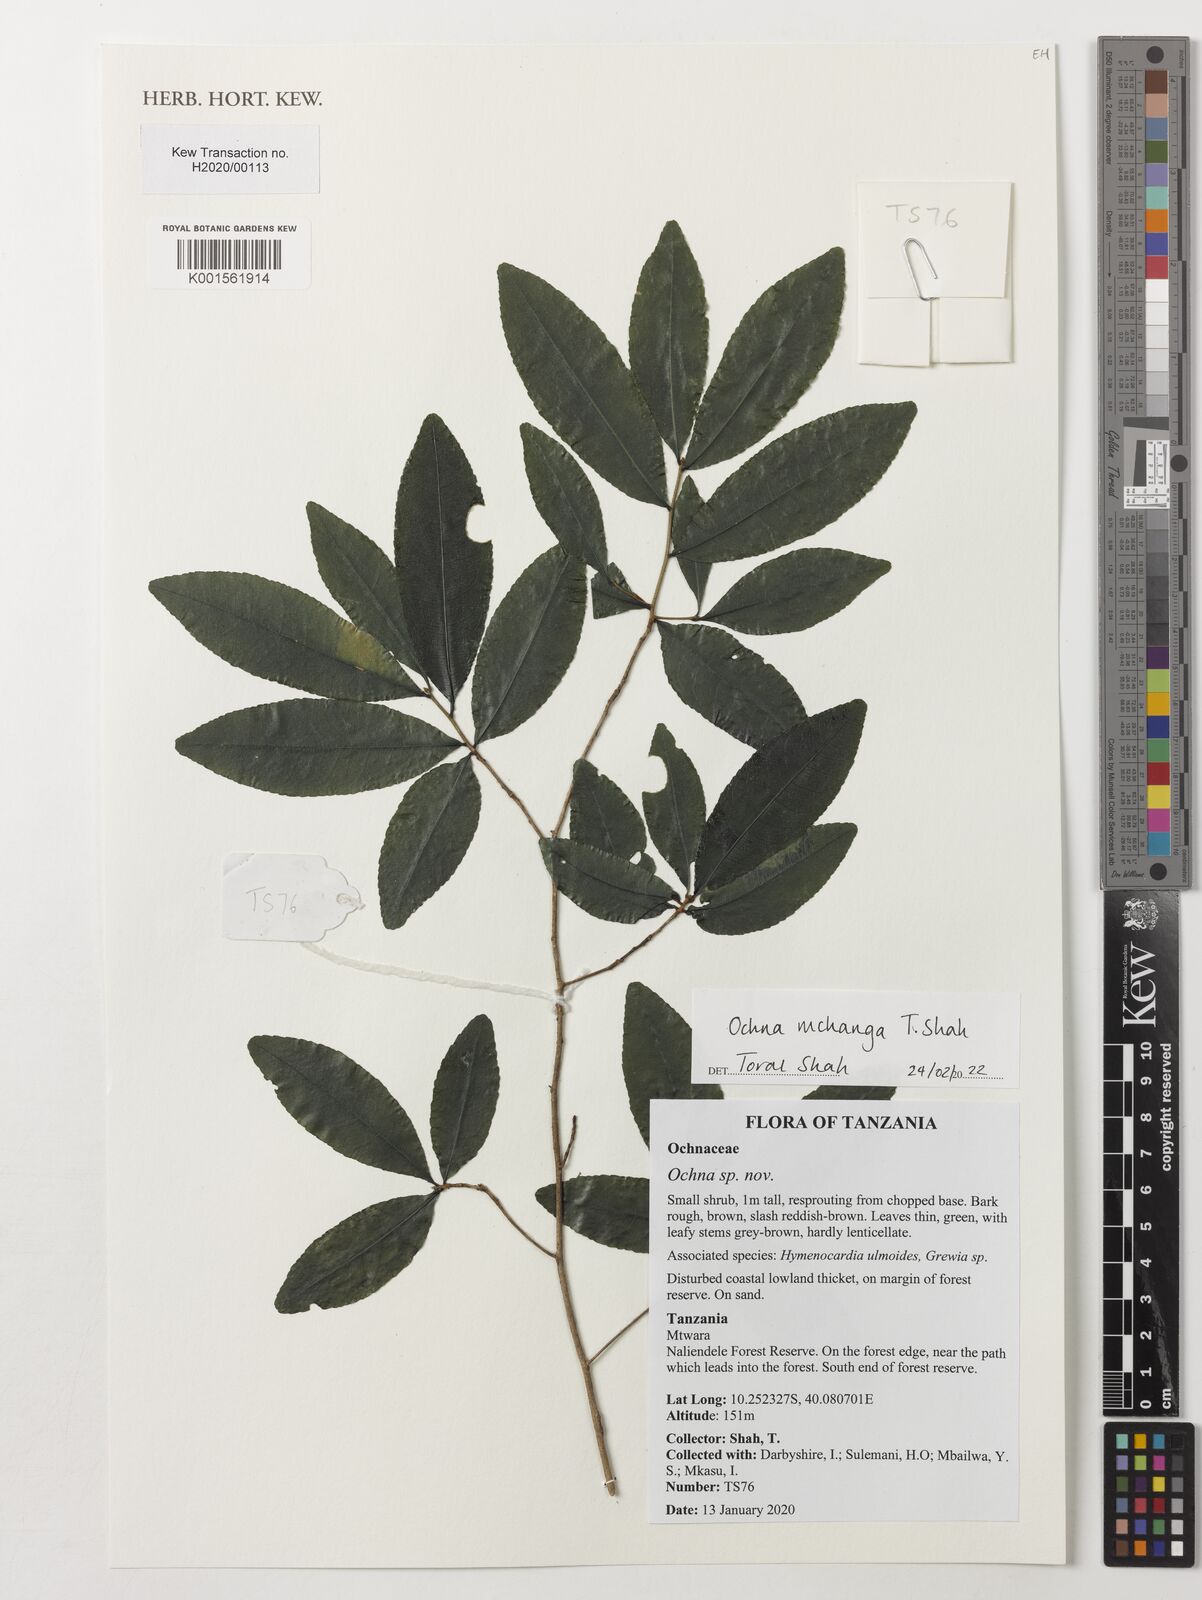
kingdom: Plantae
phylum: Tracheophyta
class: Magnoliopsida
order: Malpighiales
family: Ochnaceae
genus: Ochna
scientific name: Ochna
